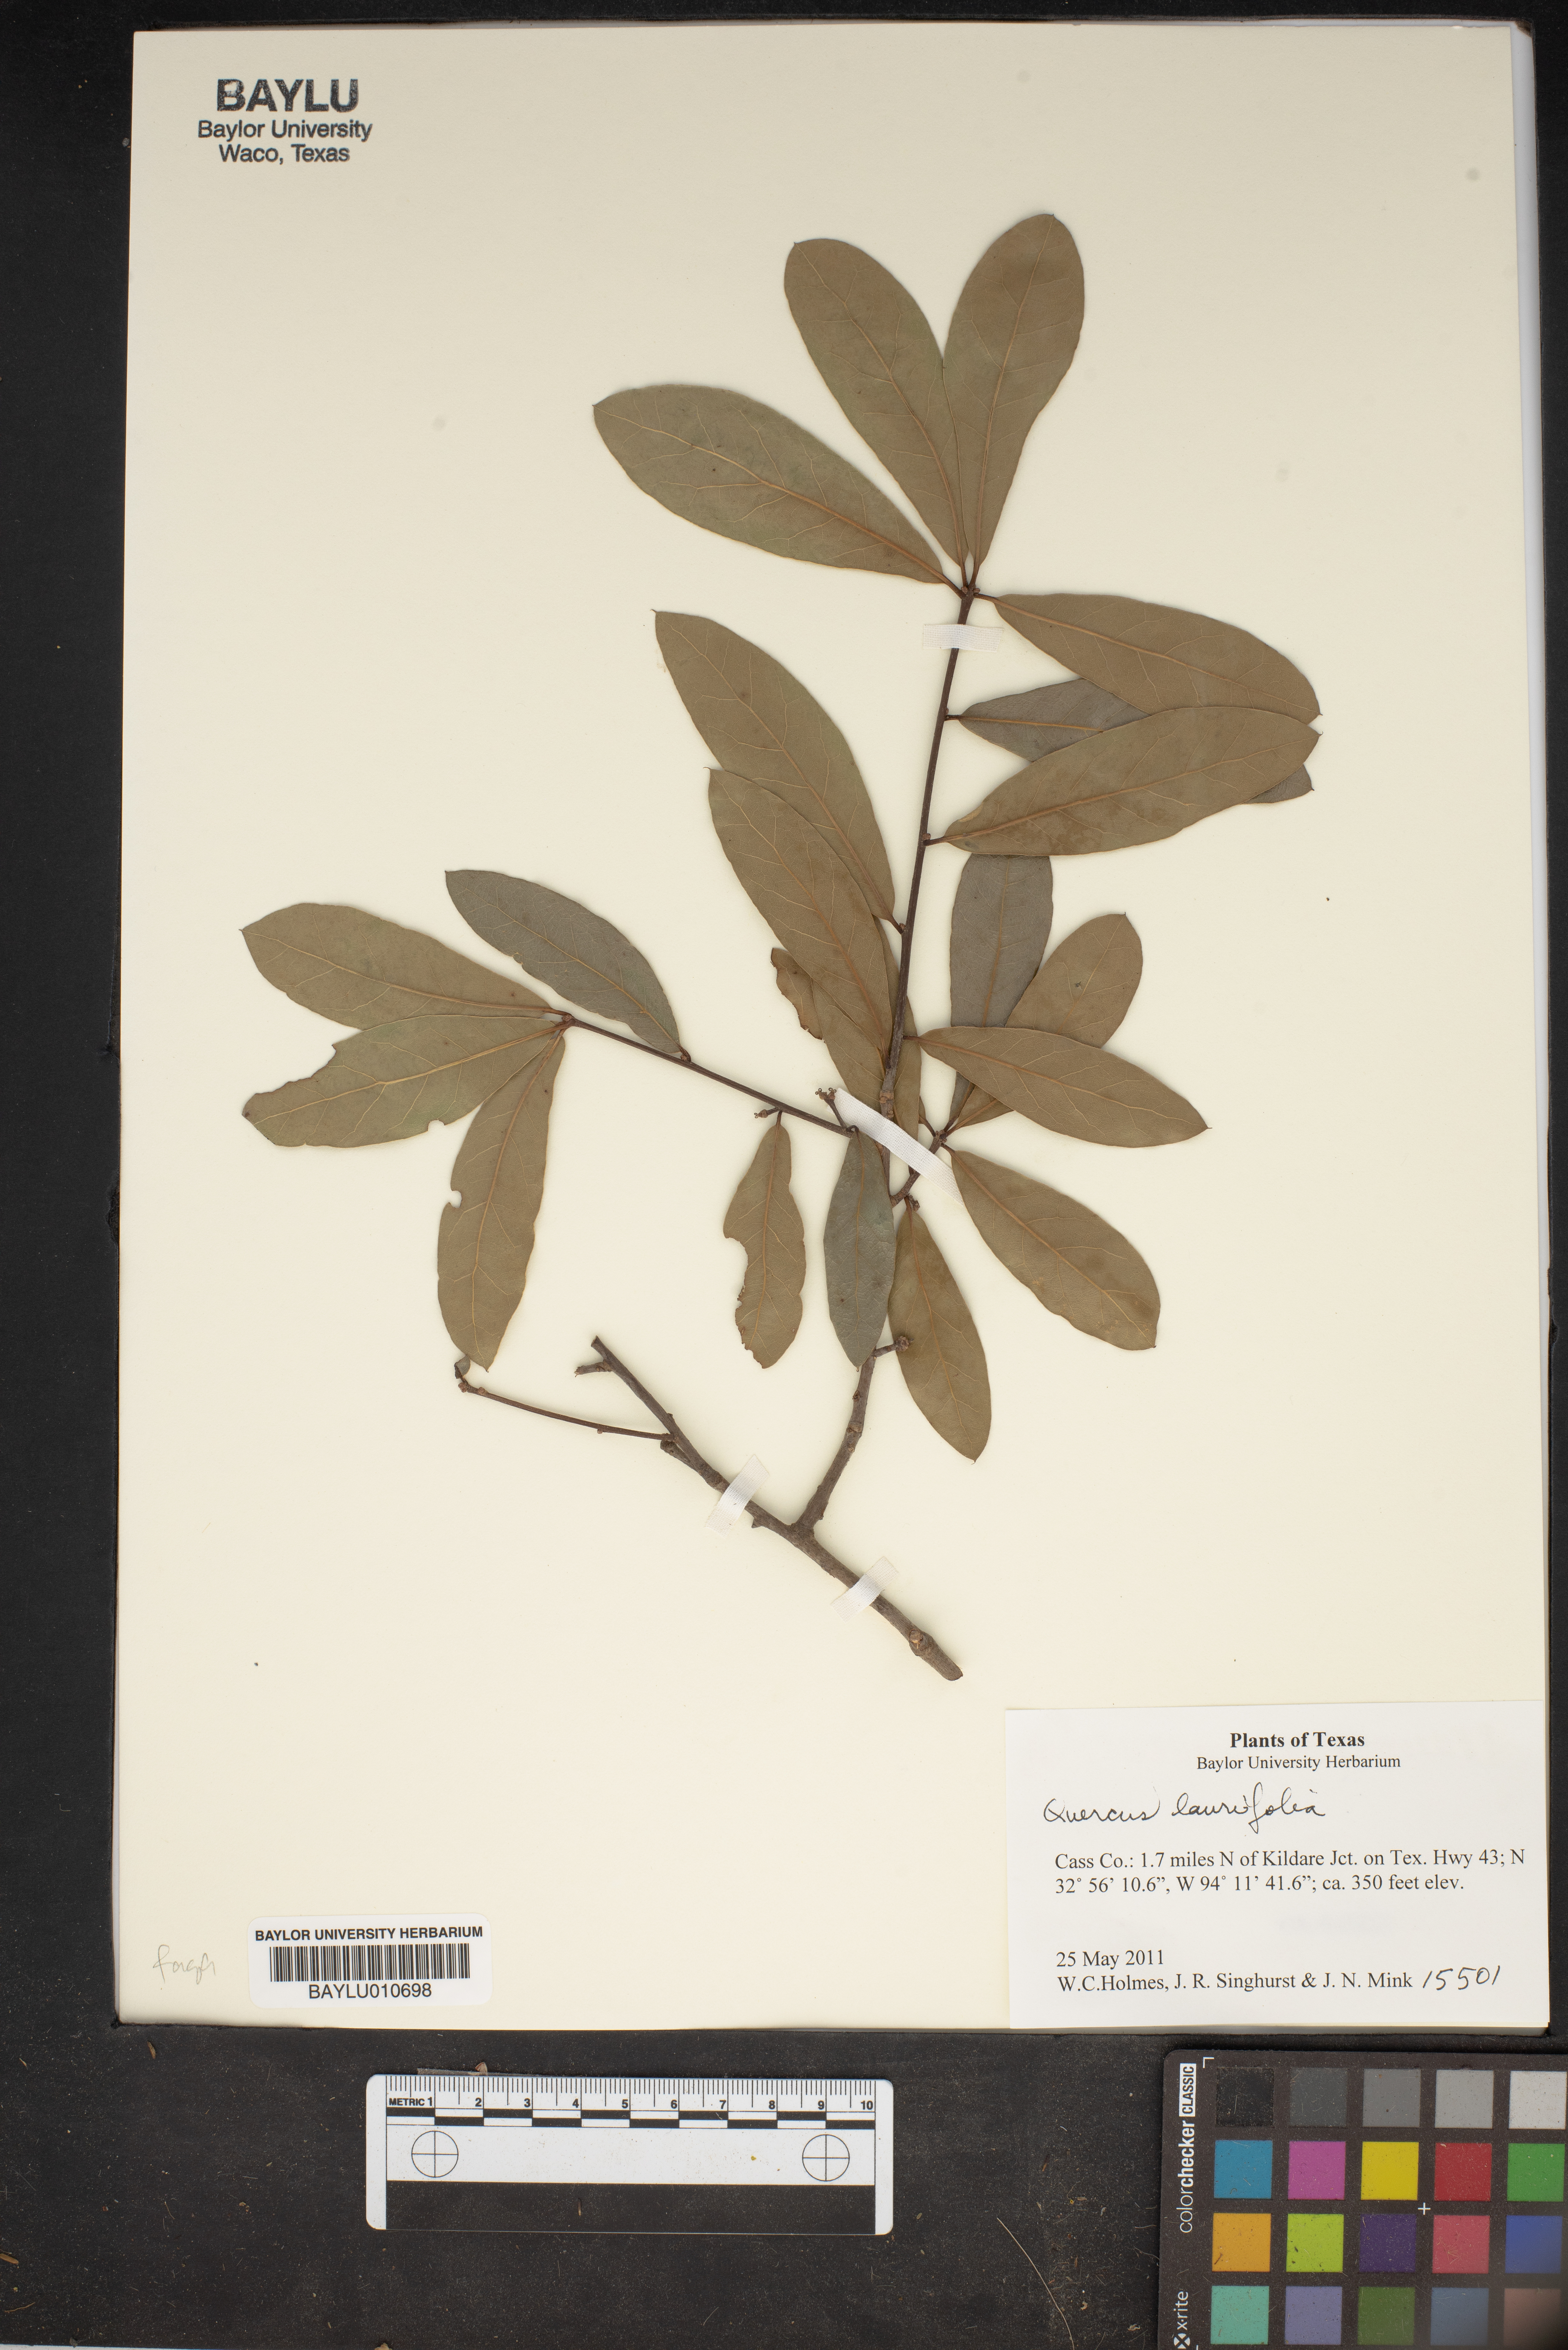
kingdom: Plantae
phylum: Tracheophyta
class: Magnoliopsida
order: Fagales
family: Fagaceae
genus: Quercus
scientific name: Quercus laurifolia
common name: Swamp laurel oak
